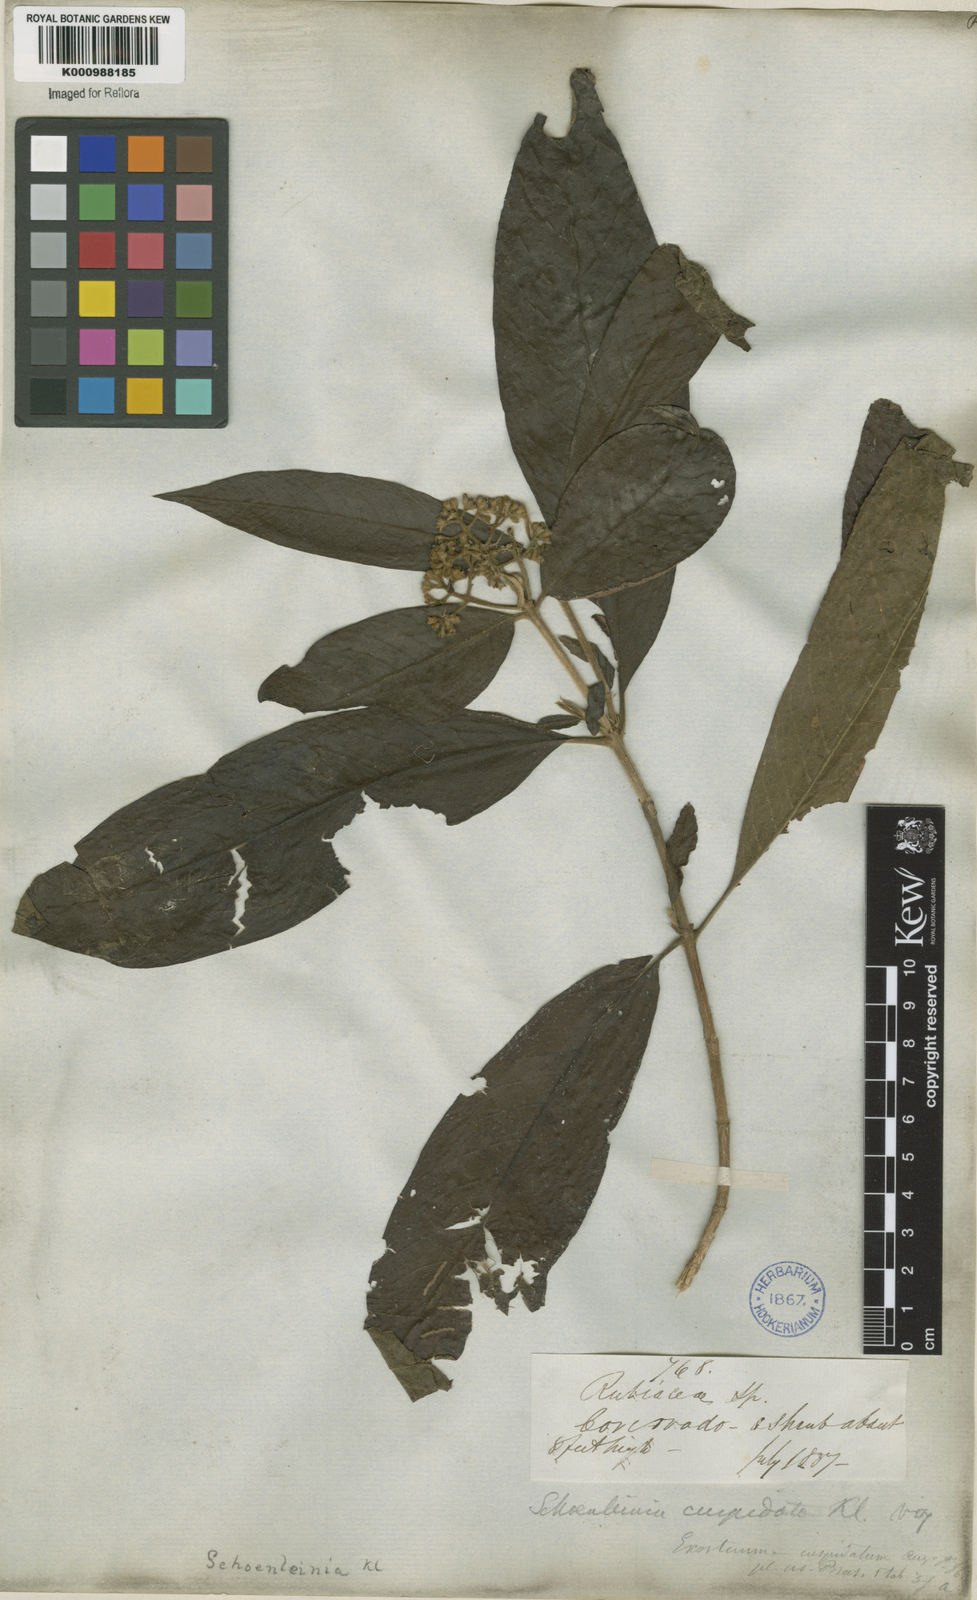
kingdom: Plantae
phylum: Tracheophyta
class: Magnoliopsida
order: Gentianales
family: Rubiaceae
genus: Bathysa
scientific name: Bathysa
